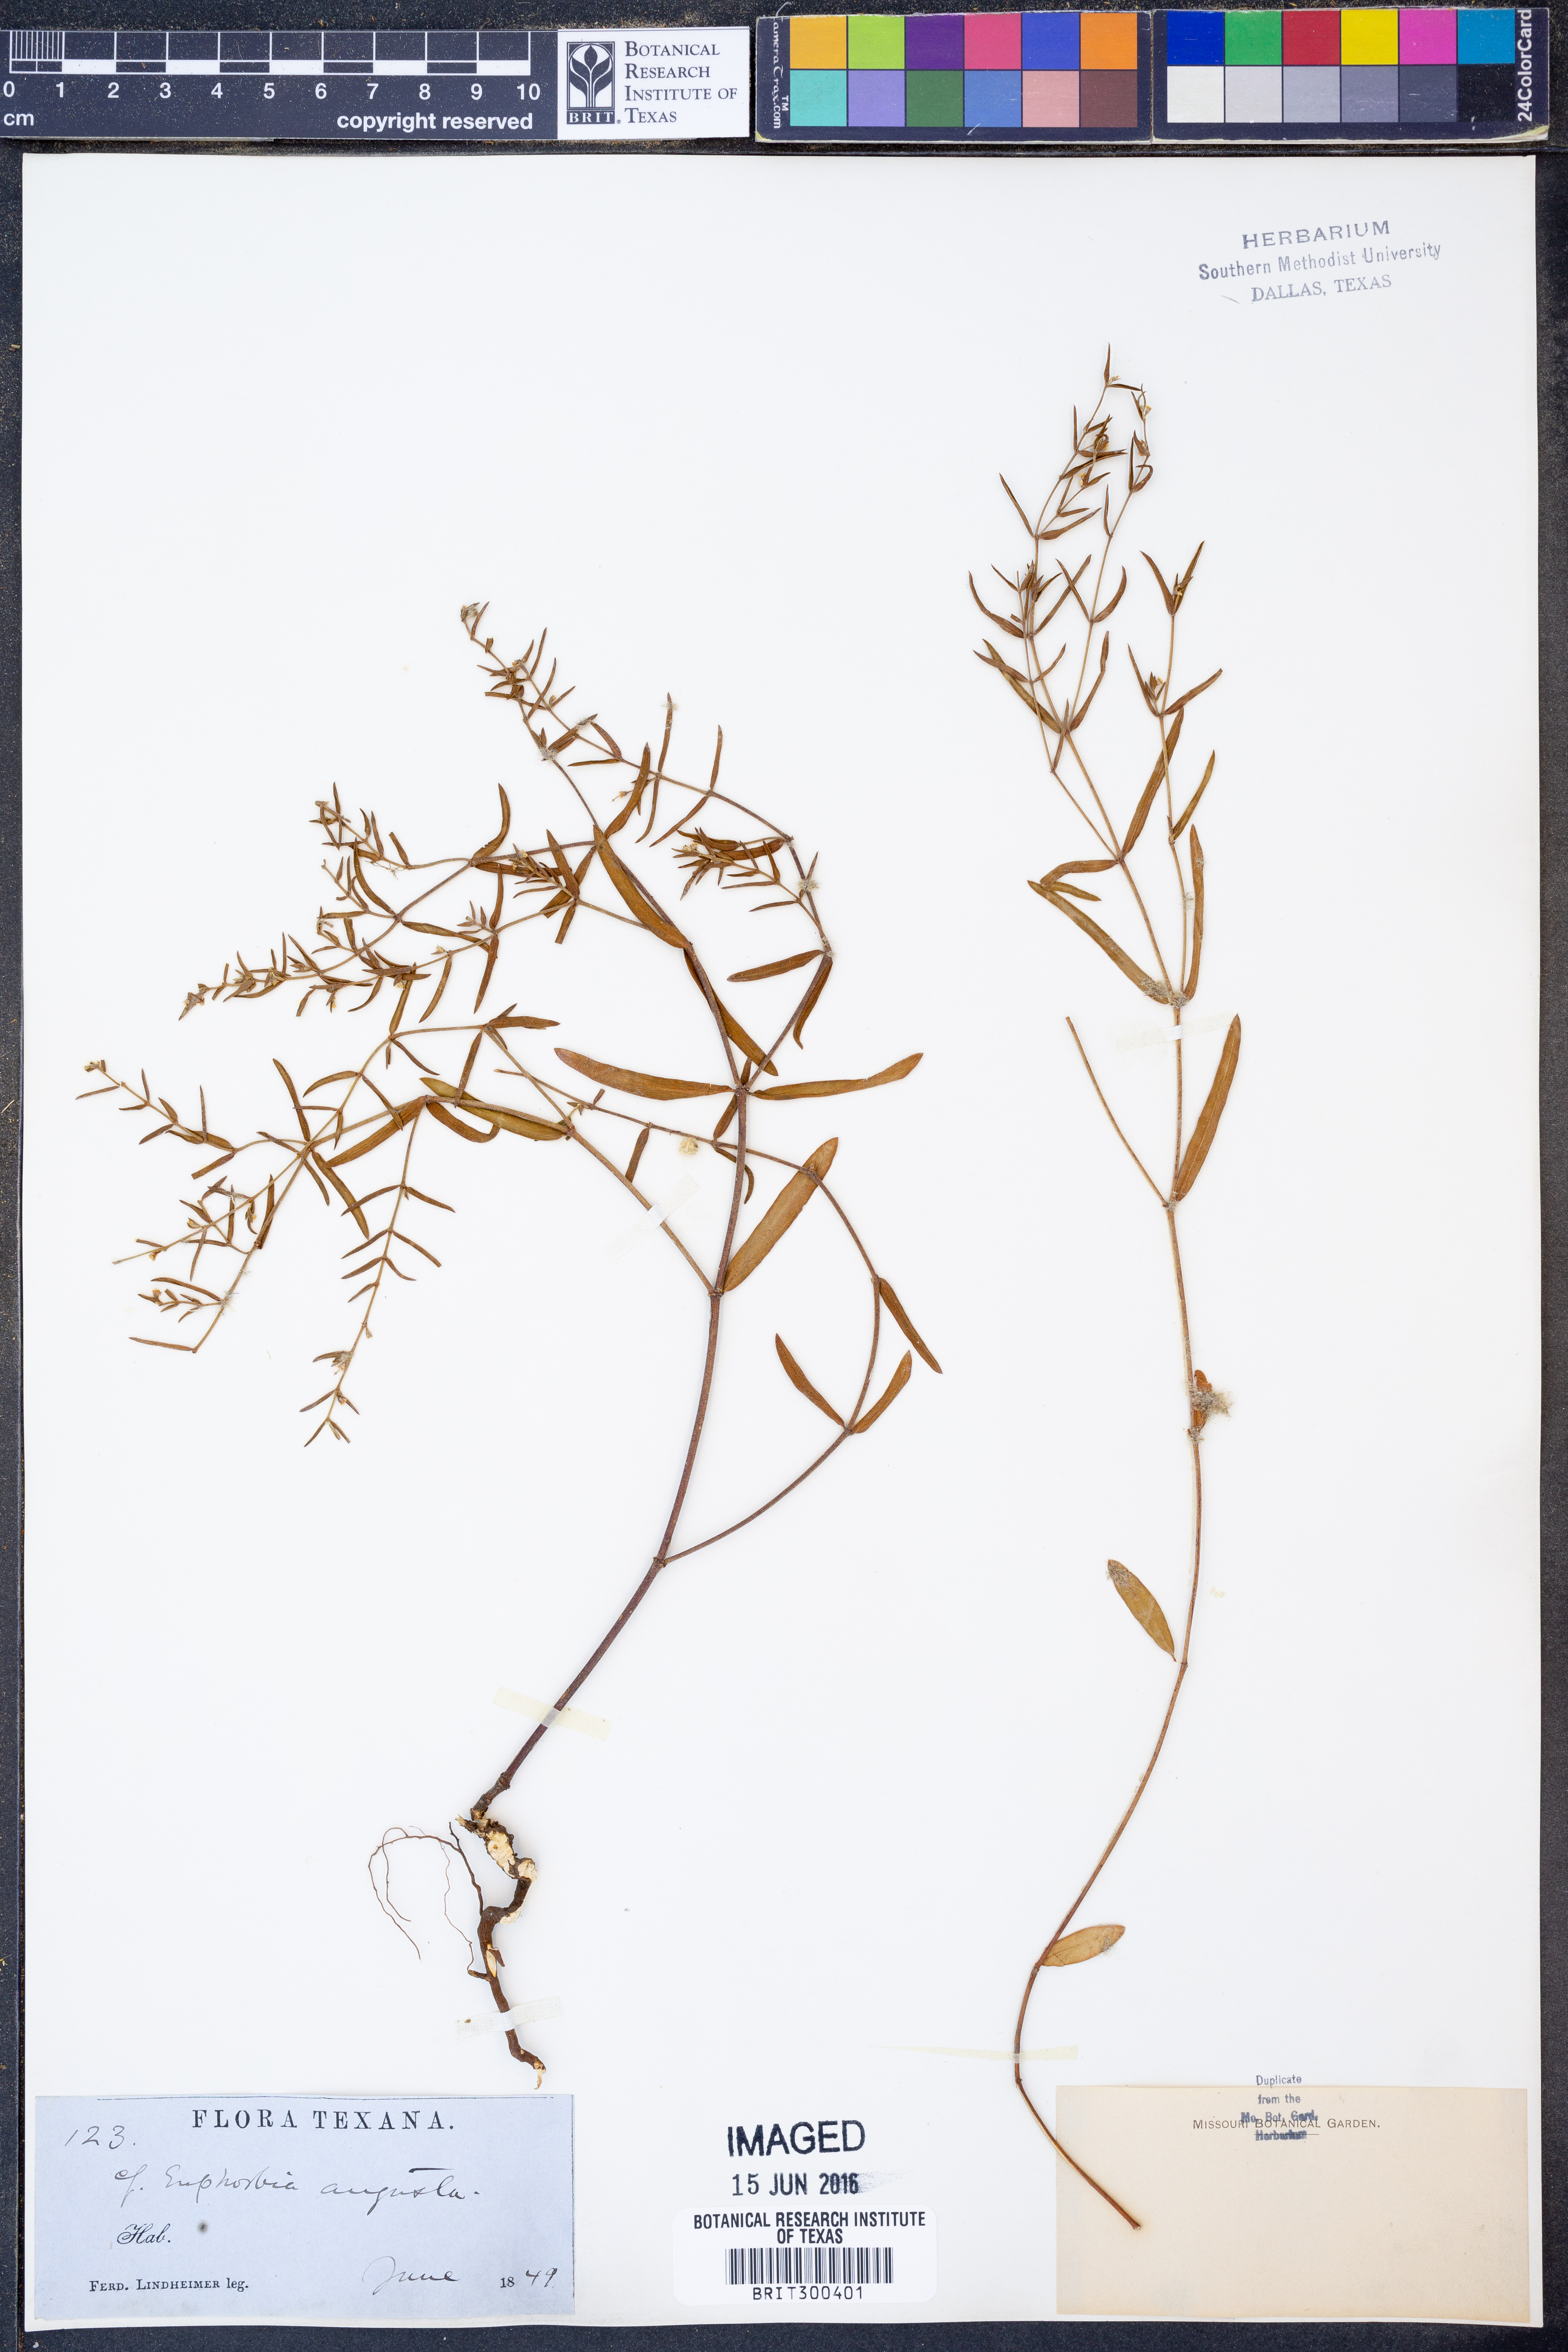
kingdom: Plantae
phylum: Tracheophyta
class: Magnoliopsida
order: Malpighiales
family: Euphorbiaceae
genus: Euphorbia
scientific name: Euphorbia angusta
